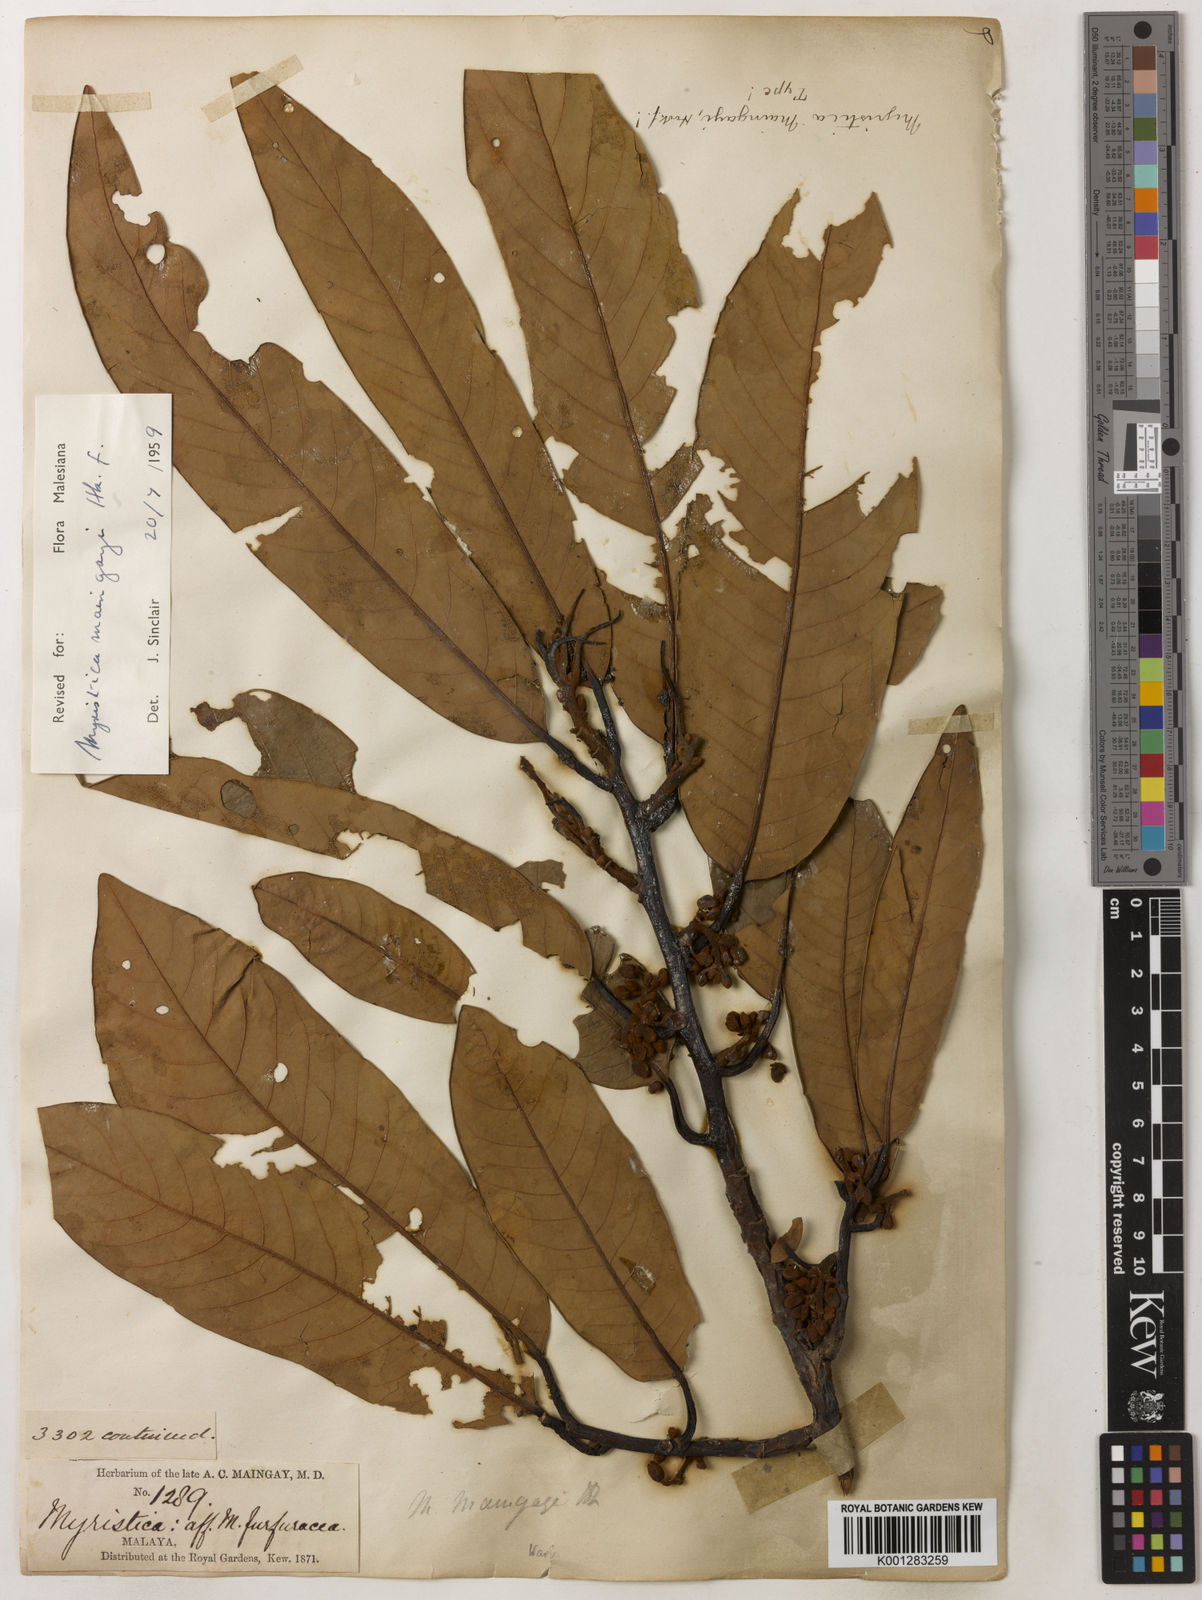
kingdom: Plantae
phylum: Tracheophyta
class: Magnoliopsida
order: Magnoliales
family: Myristicaceae
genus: Myristica
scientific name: Myristica maingayi
